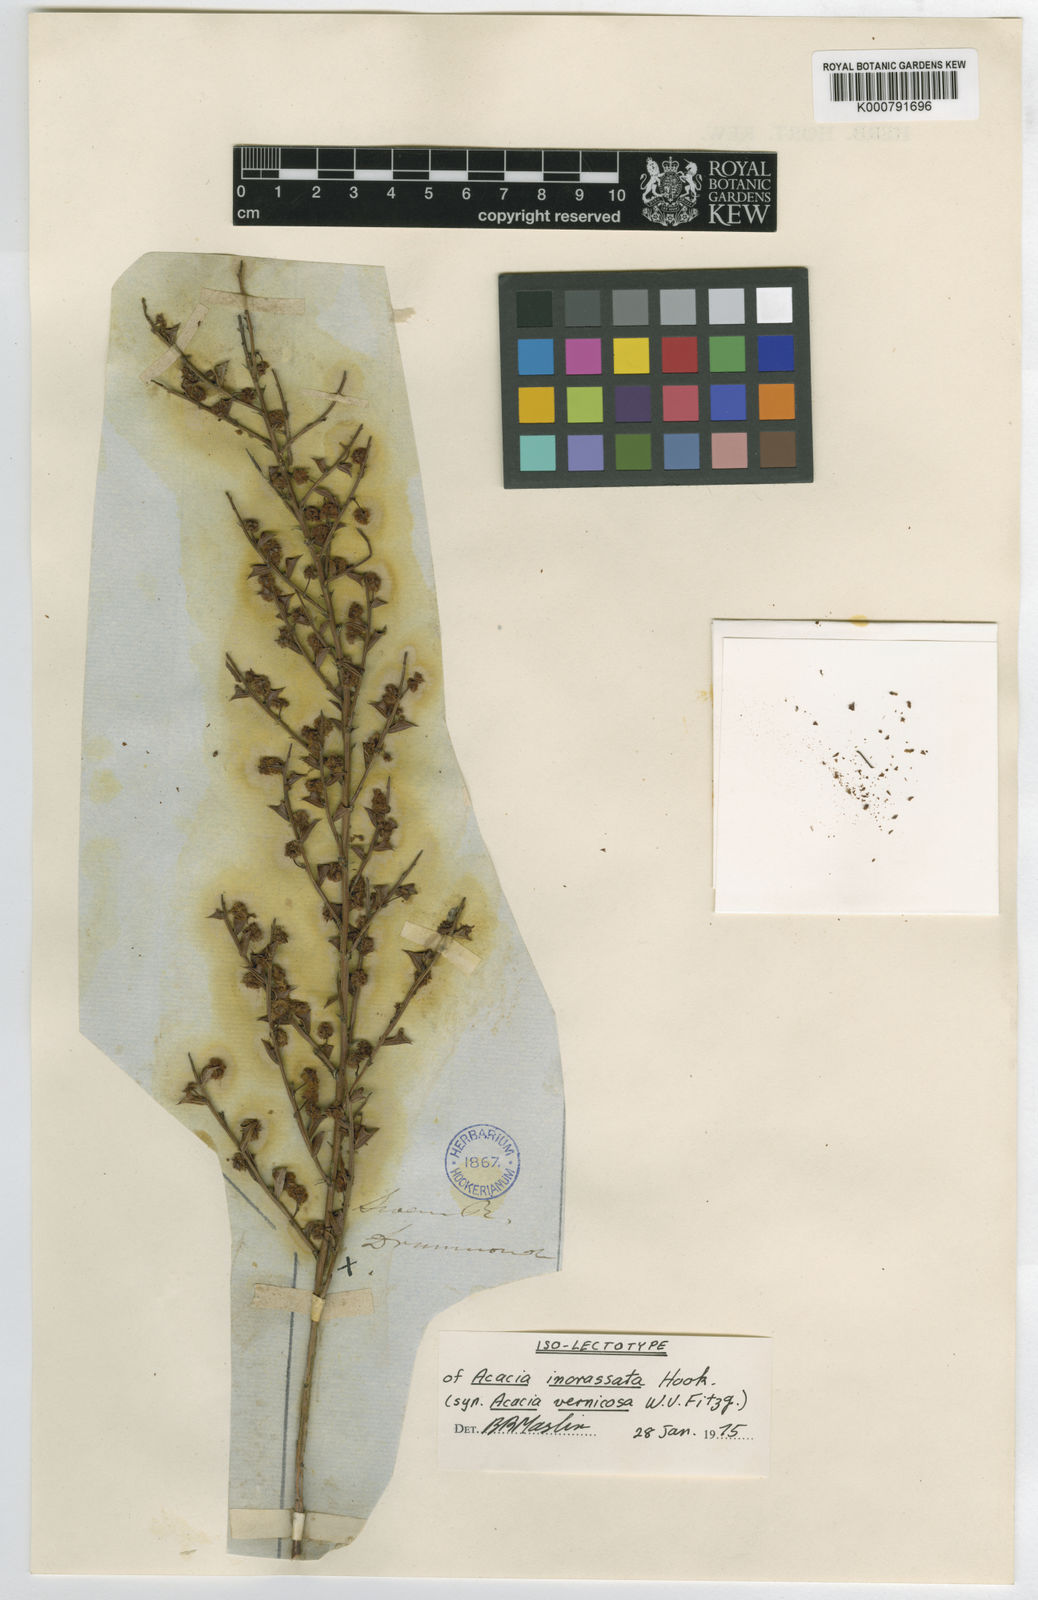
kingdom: Plantae
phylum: Tracheophyta
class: Magnoliopsida
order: Fabales
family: Fabaceae
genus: Acacia
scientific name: Acacia incrassata
